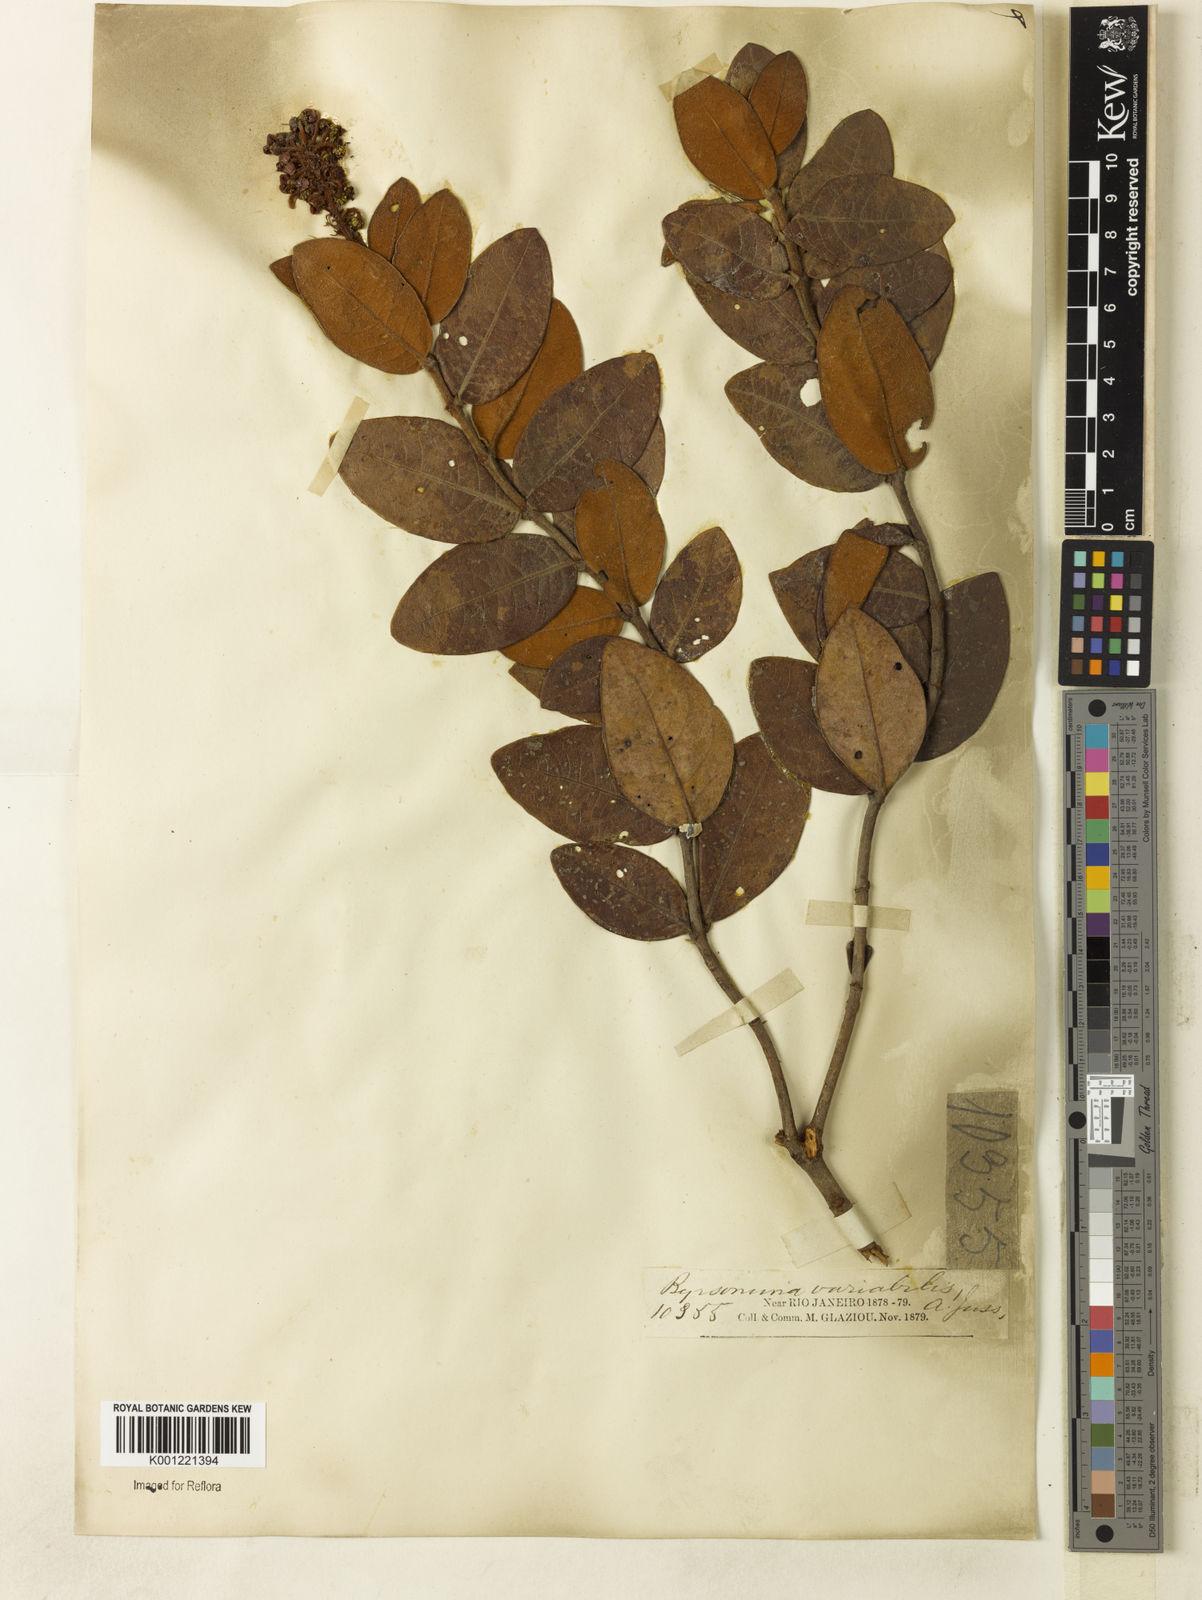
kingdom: Plantae
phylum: Tracheophyta
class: Magnoliopsida
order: Malpighiales
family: Malpighiaceae
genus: Byrsonima
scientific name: Byrsonima variabilis
